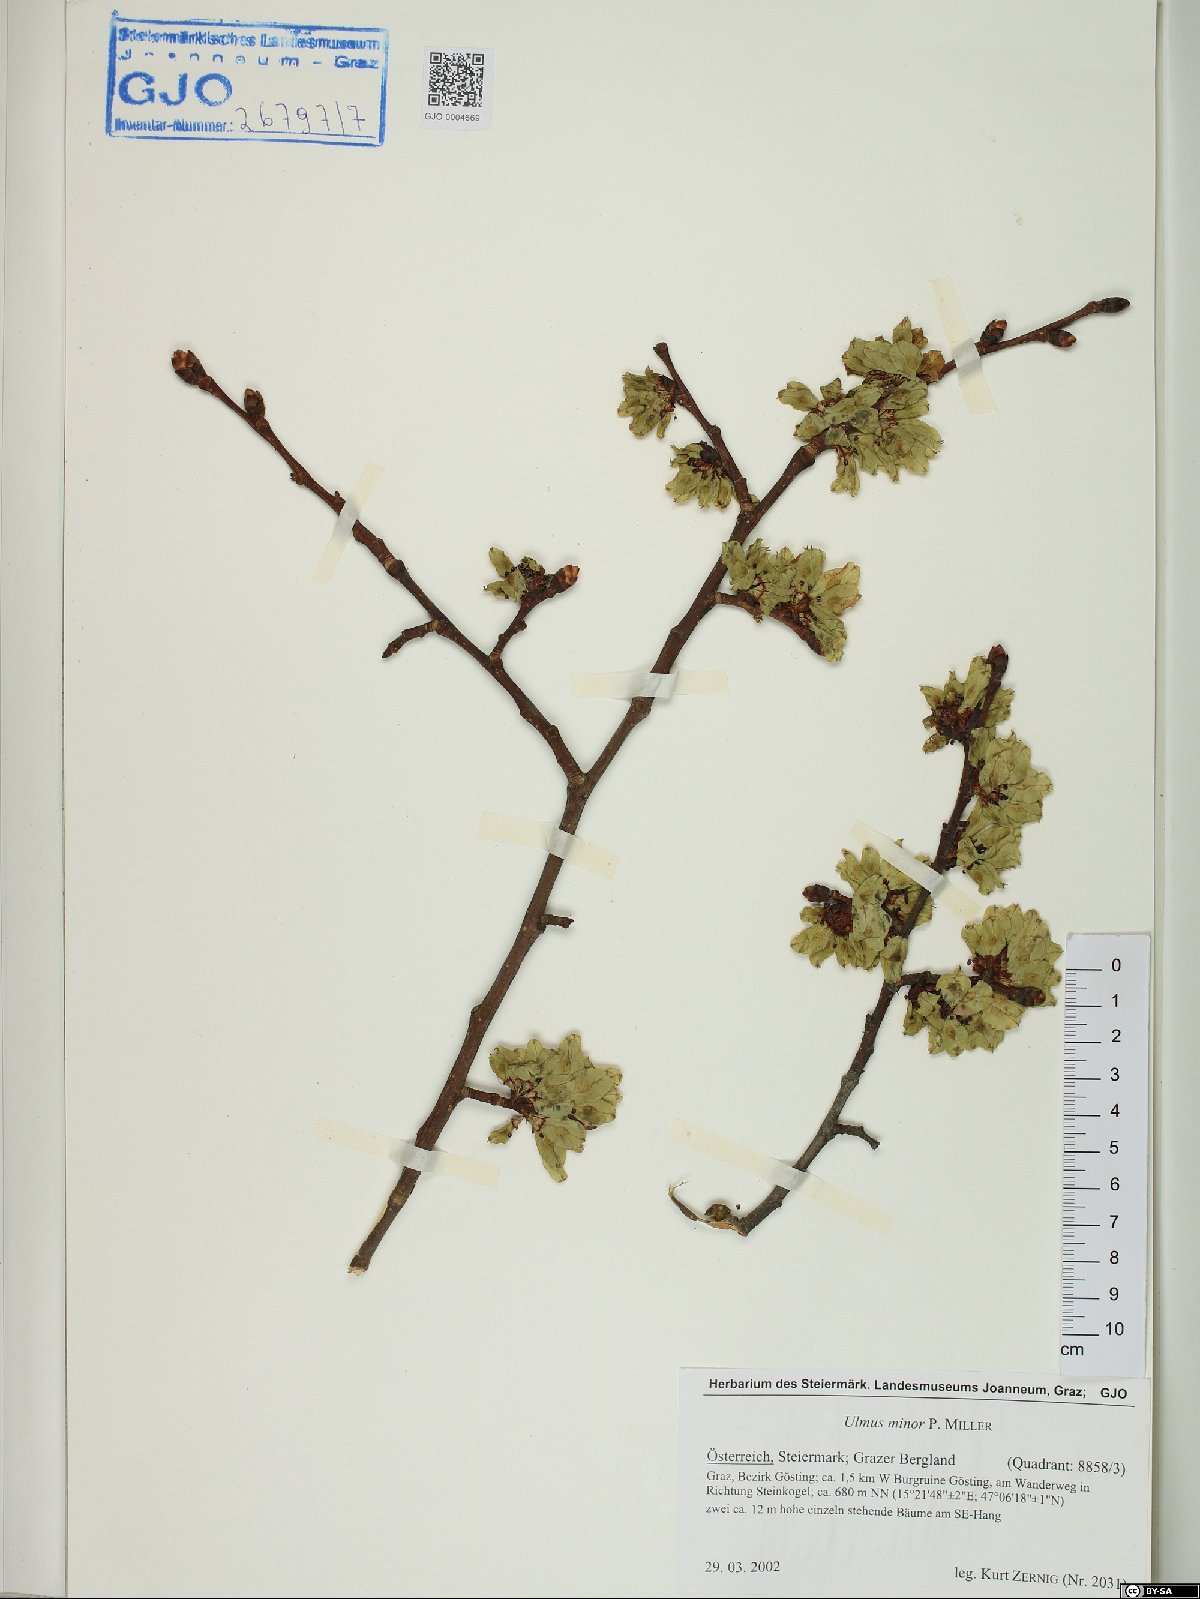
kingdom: Plantae
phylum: Tracheophyta
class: Magnoliopsida
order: Rosales
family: Ulmaceae
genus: Ulmus
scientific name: Ulmus minor
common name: Small-leaved elm
